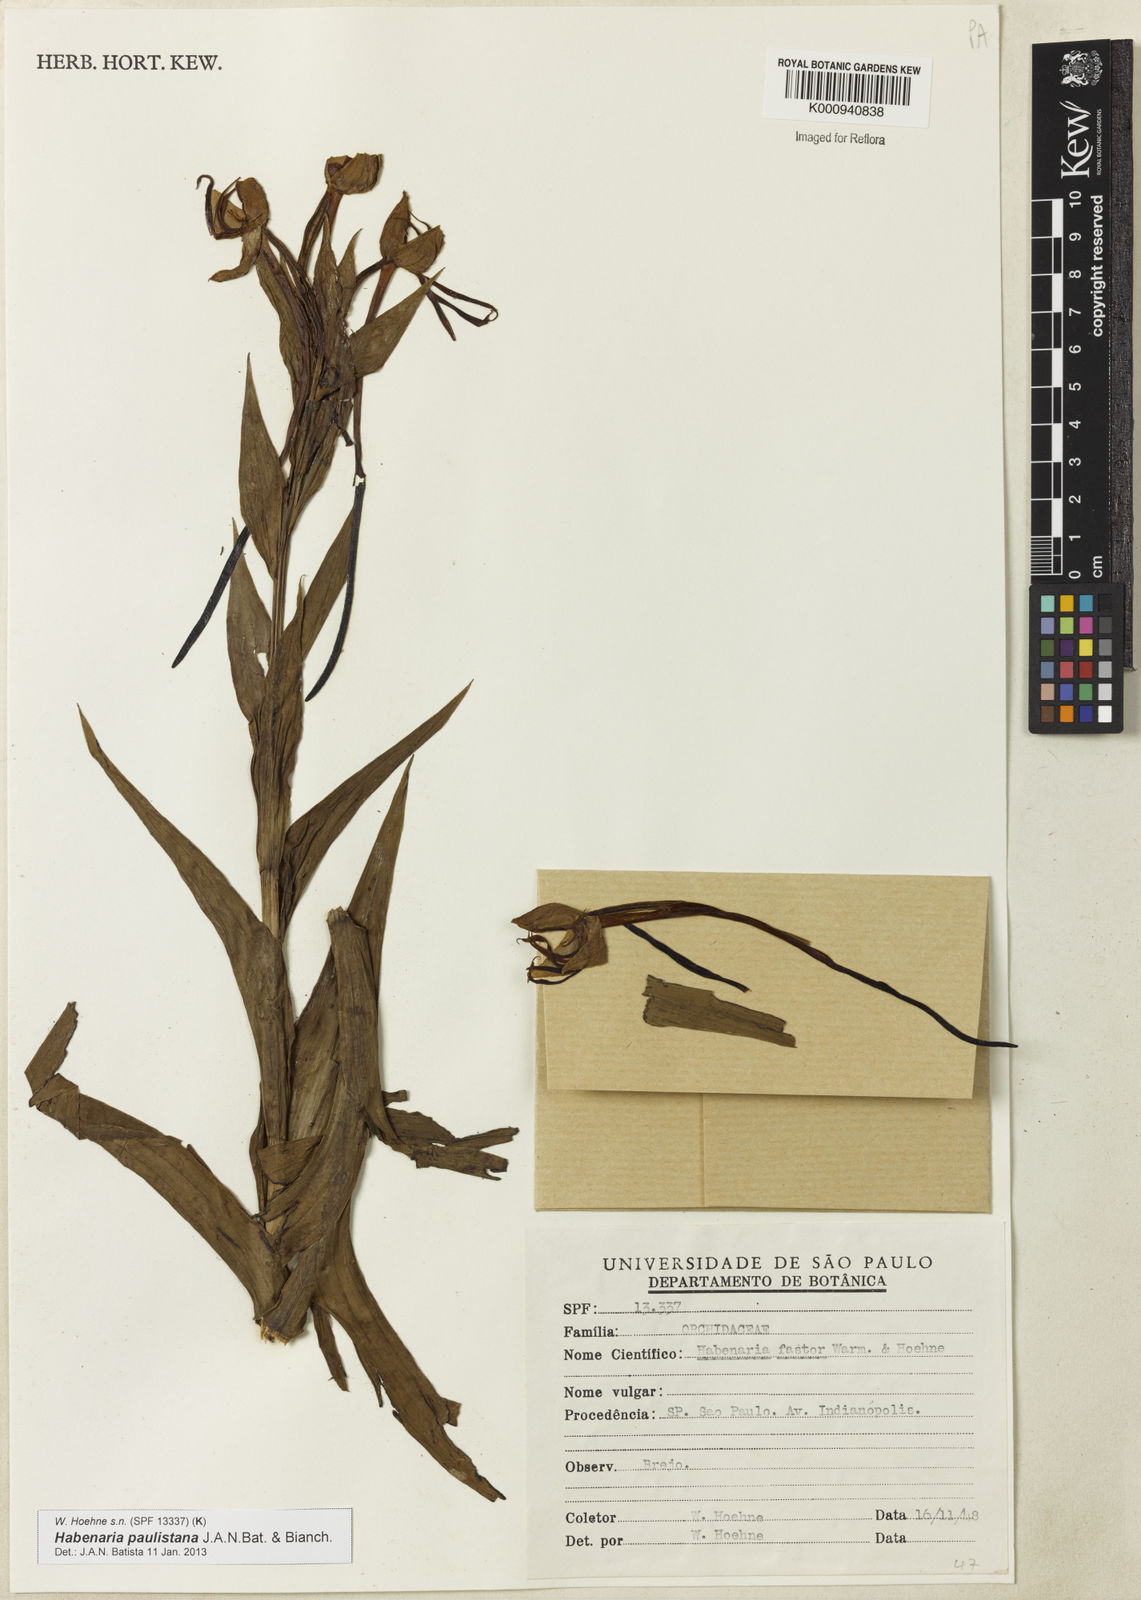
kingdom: Plantae
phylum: Tracheophyta
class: Liliopsida
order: Asparagales
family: Orchidaceae
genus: Habenaria
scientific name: Habenaria paulistana
